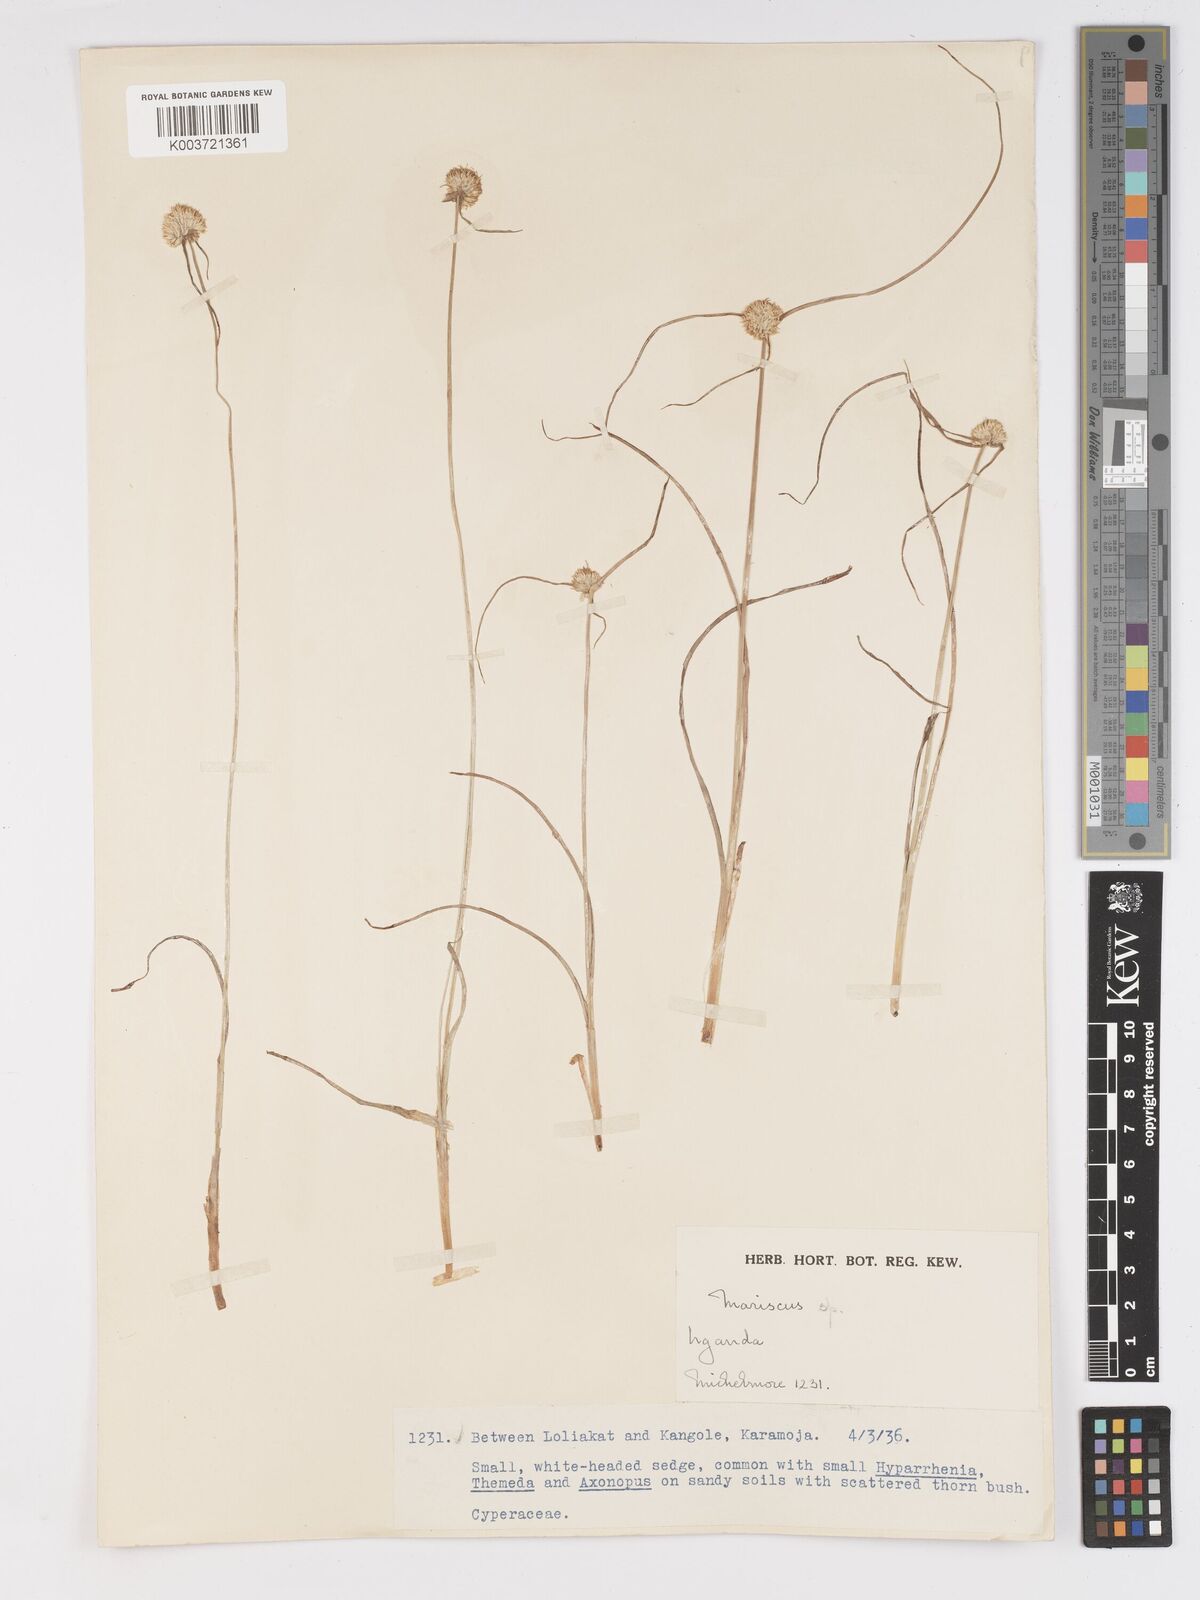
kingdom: Plantae
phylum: Tracheophyta
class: Liliopsida
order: Poales
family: Cyperaceae
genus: Cyperus
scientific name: Cyperus mollipes
